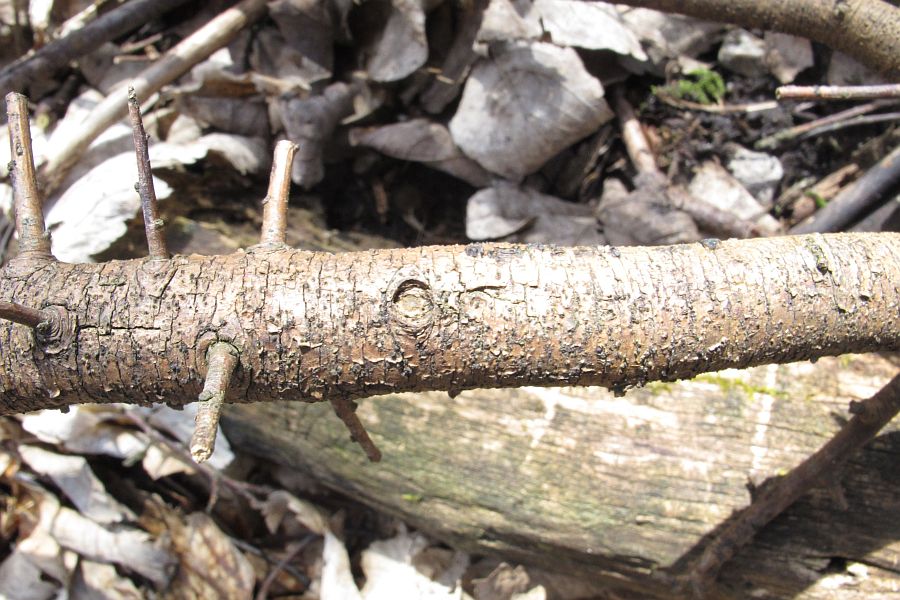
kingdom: Fungi
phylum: Ascomycota
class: Sordariomycetes
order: Xylariales
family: Diatrypaceae
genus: Eutypella
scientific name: Eutypella prunastri
